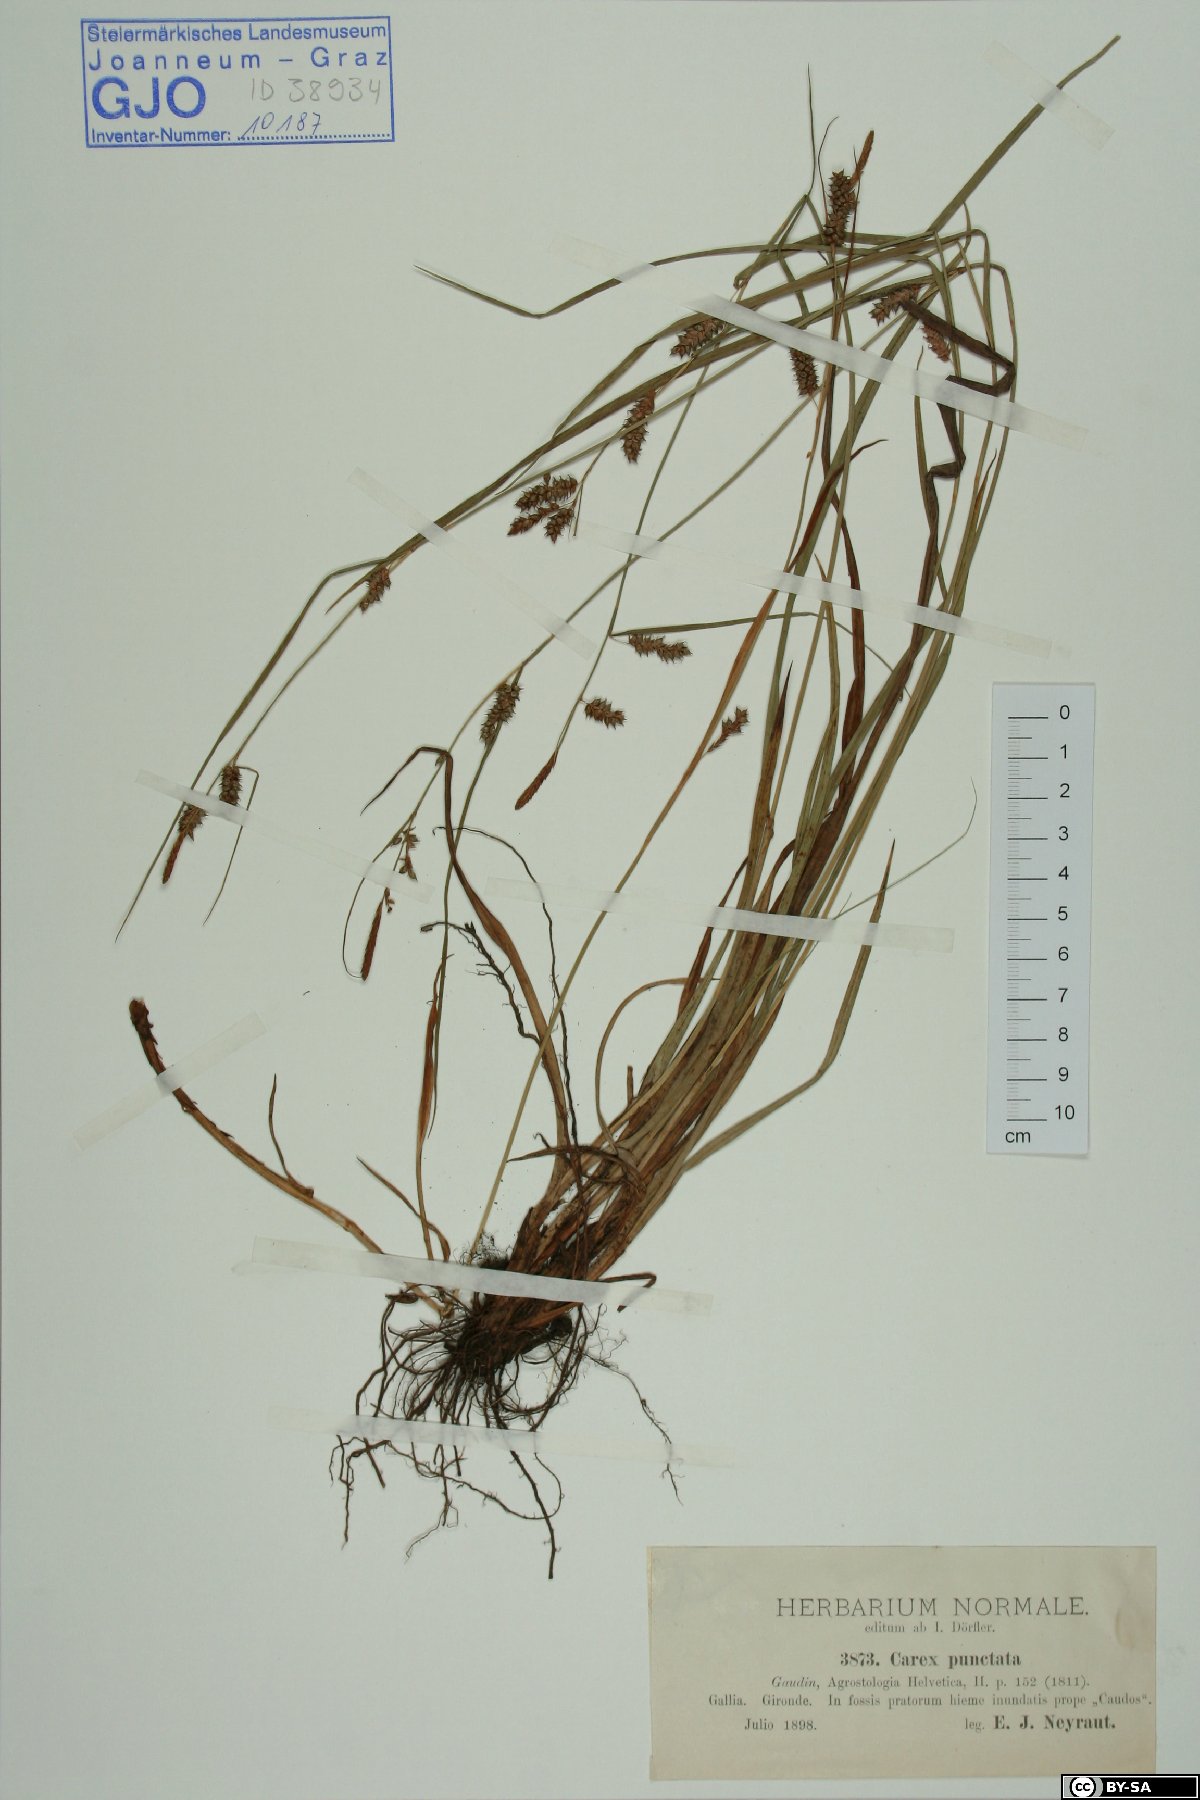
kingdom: Plantae
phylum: Tracheophyta
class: Liliopsida
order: Poales
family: Cyperaceae
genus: Carex
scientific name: Carex punctata
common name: Dotted sedge
